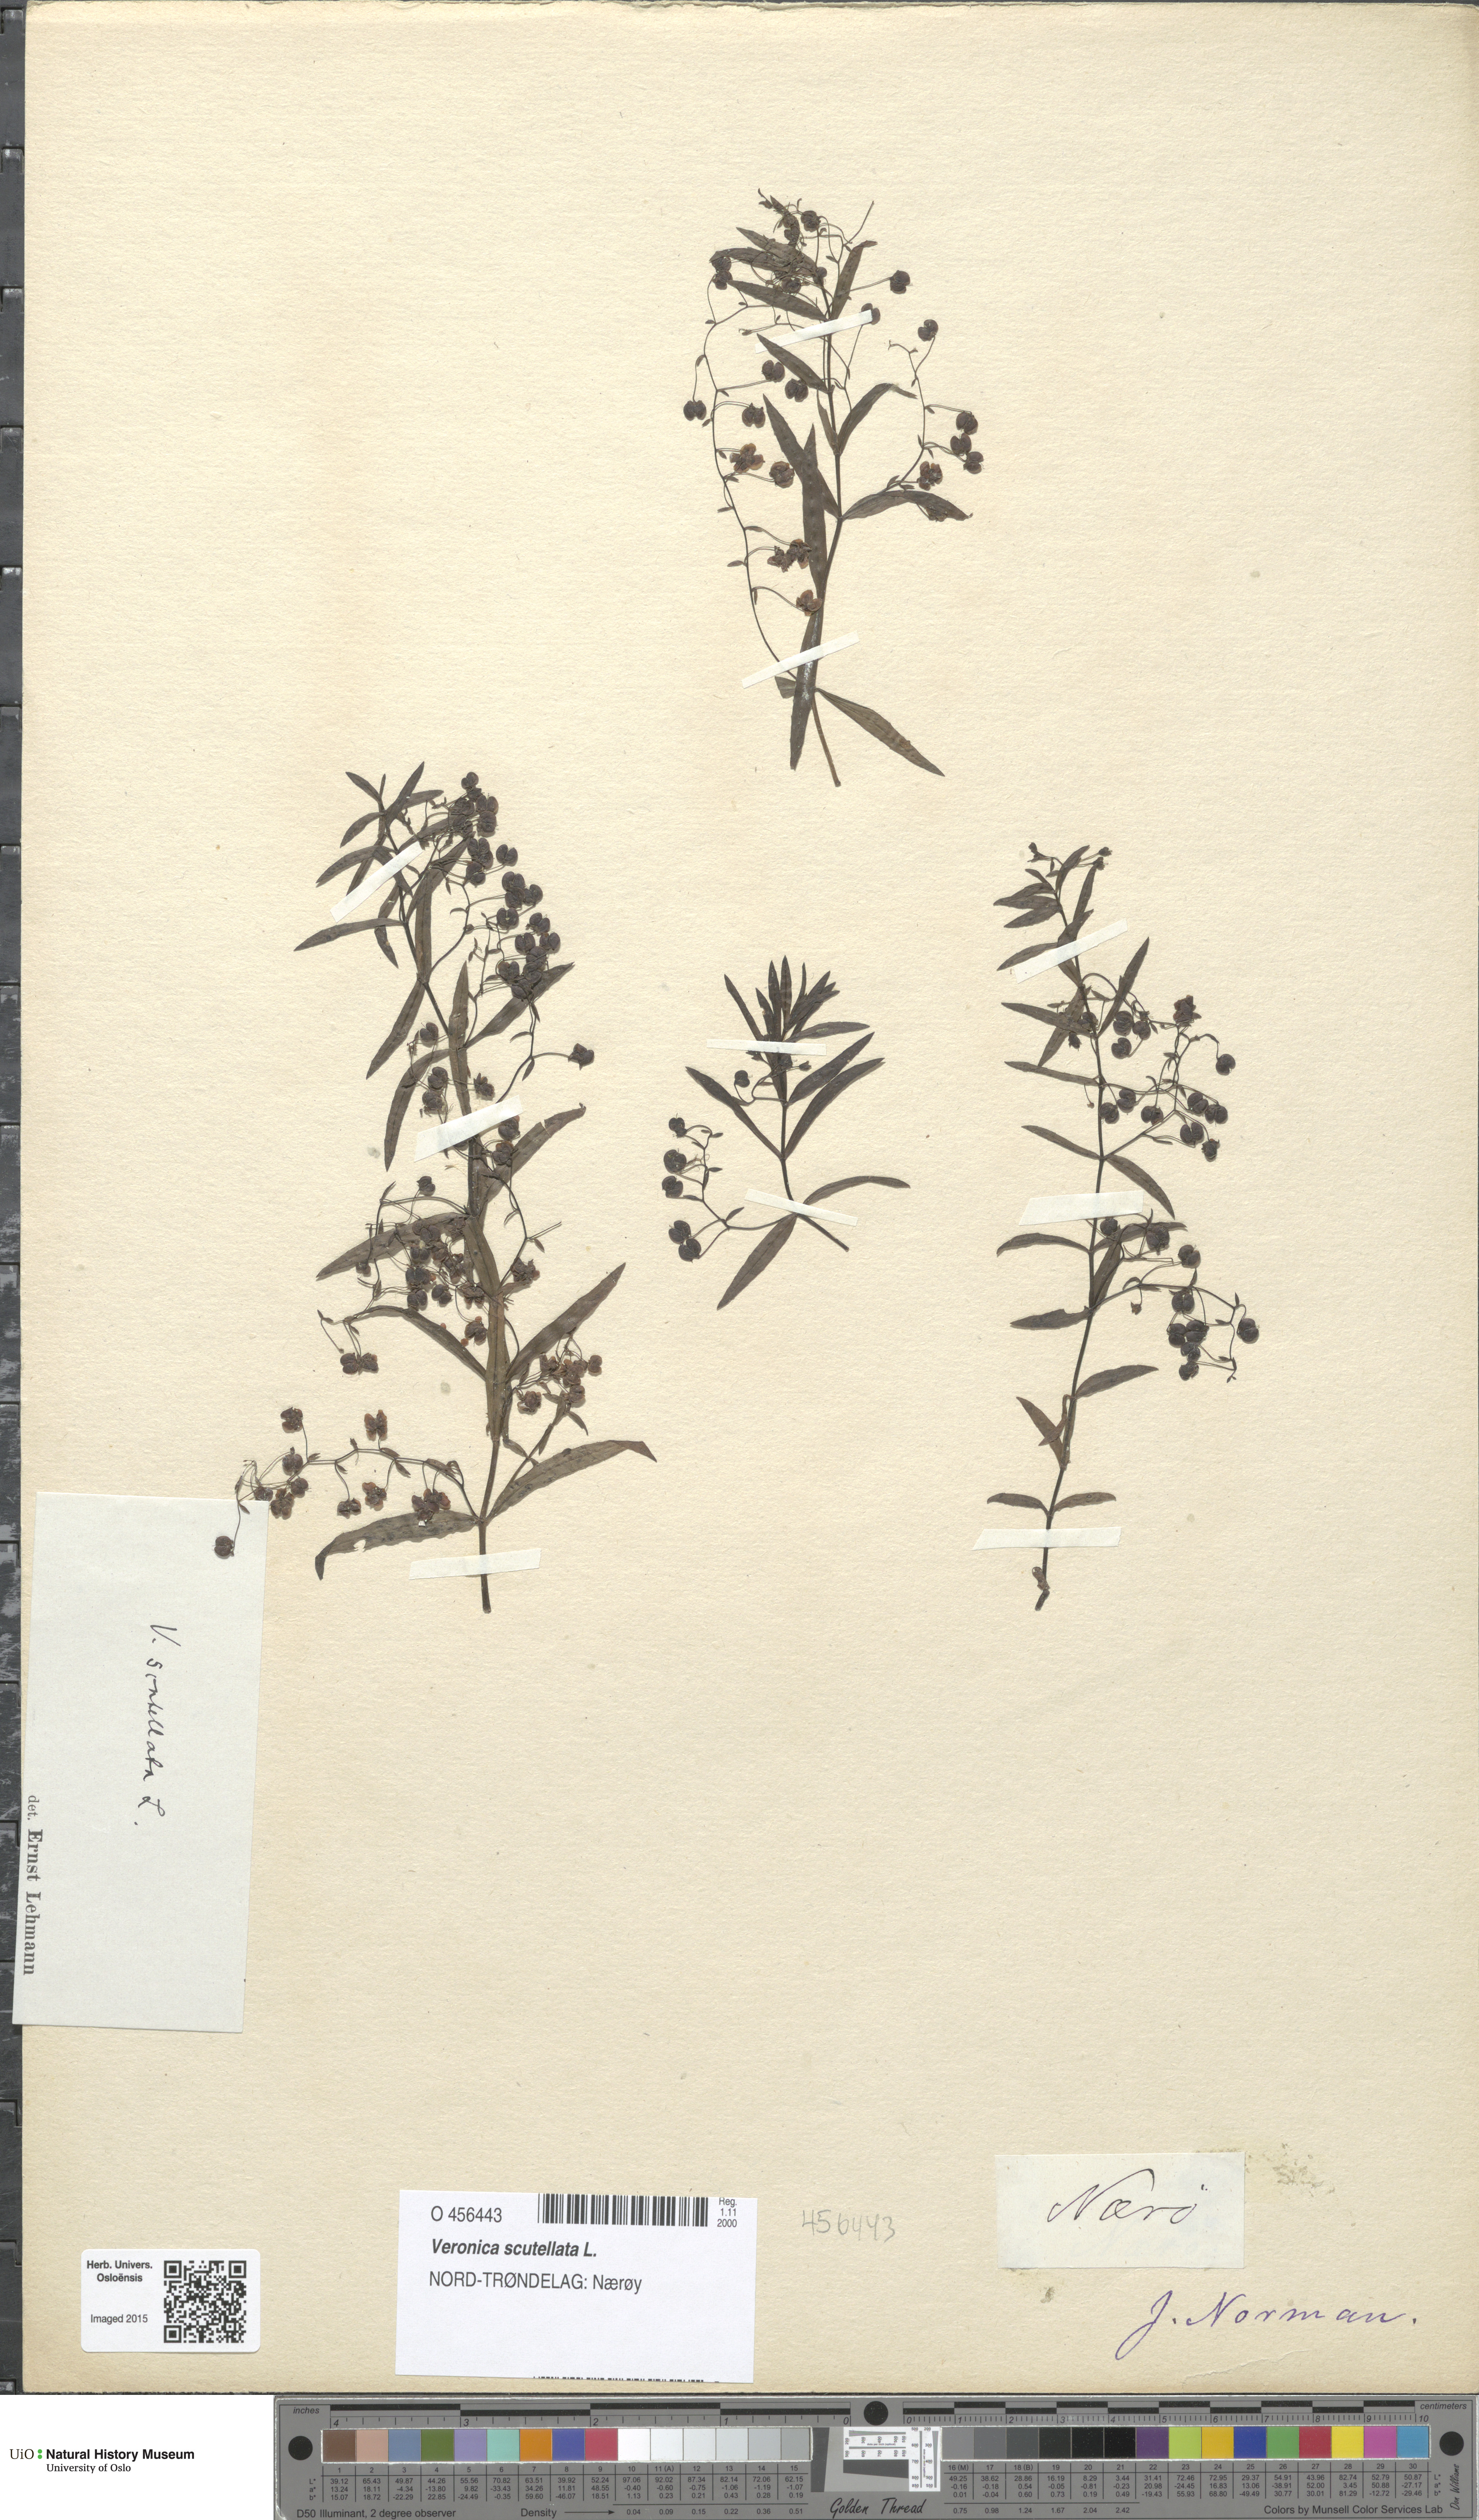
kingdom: Plantae
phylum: Tracheophyta
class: Magnoliopsida
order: Lamiales
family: Plantaginaceae
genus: Veronica
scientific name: Veronica scutellata
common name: Marsh speedwell
